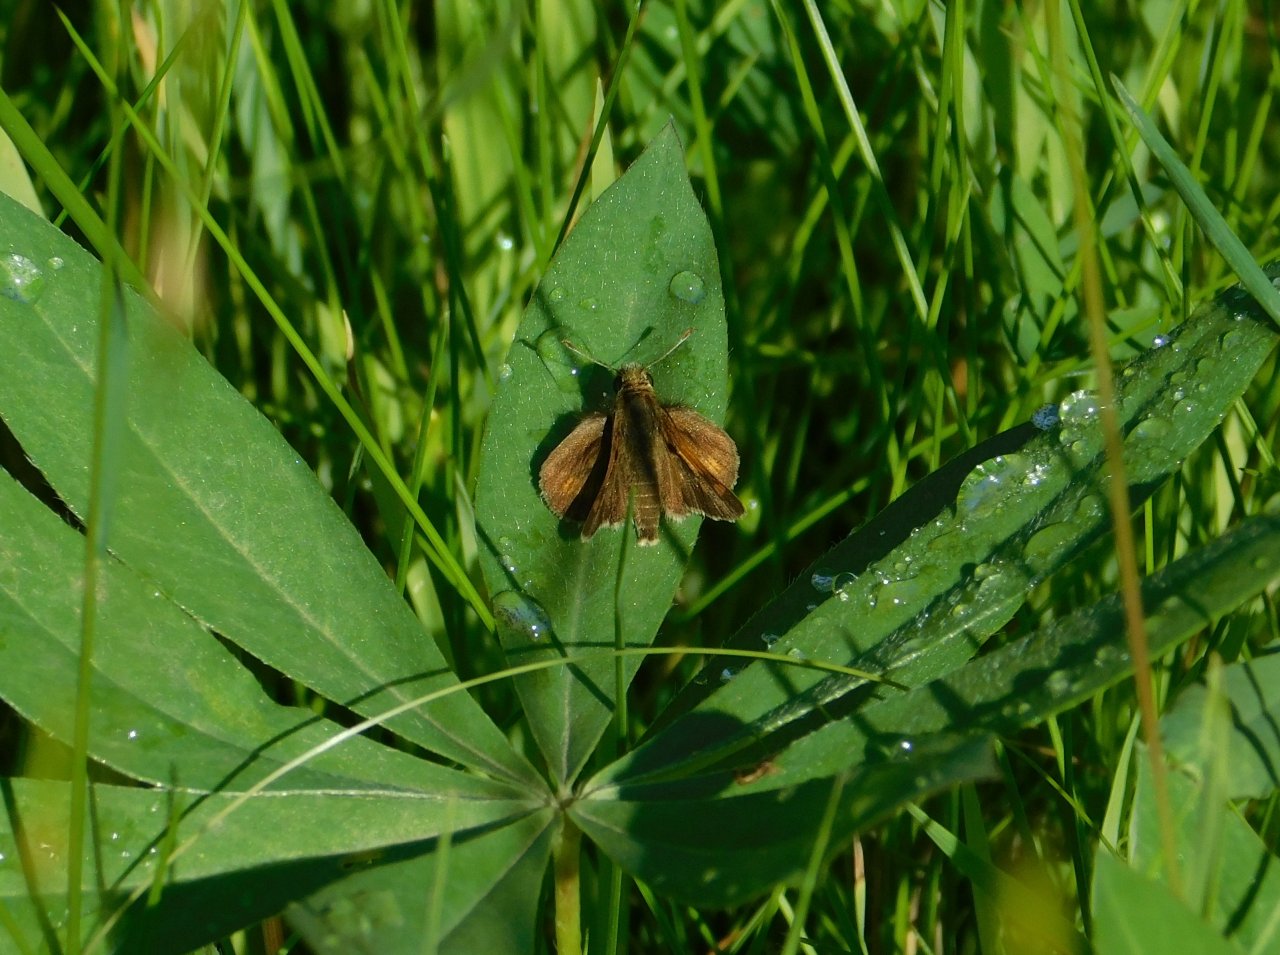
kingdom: Animalia
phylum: Arthropoda
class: Insecta
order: Lepidoptera
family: Hesperiidae
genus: Polites
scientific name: Polites themistocles
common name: Tawny-edged Skipper
